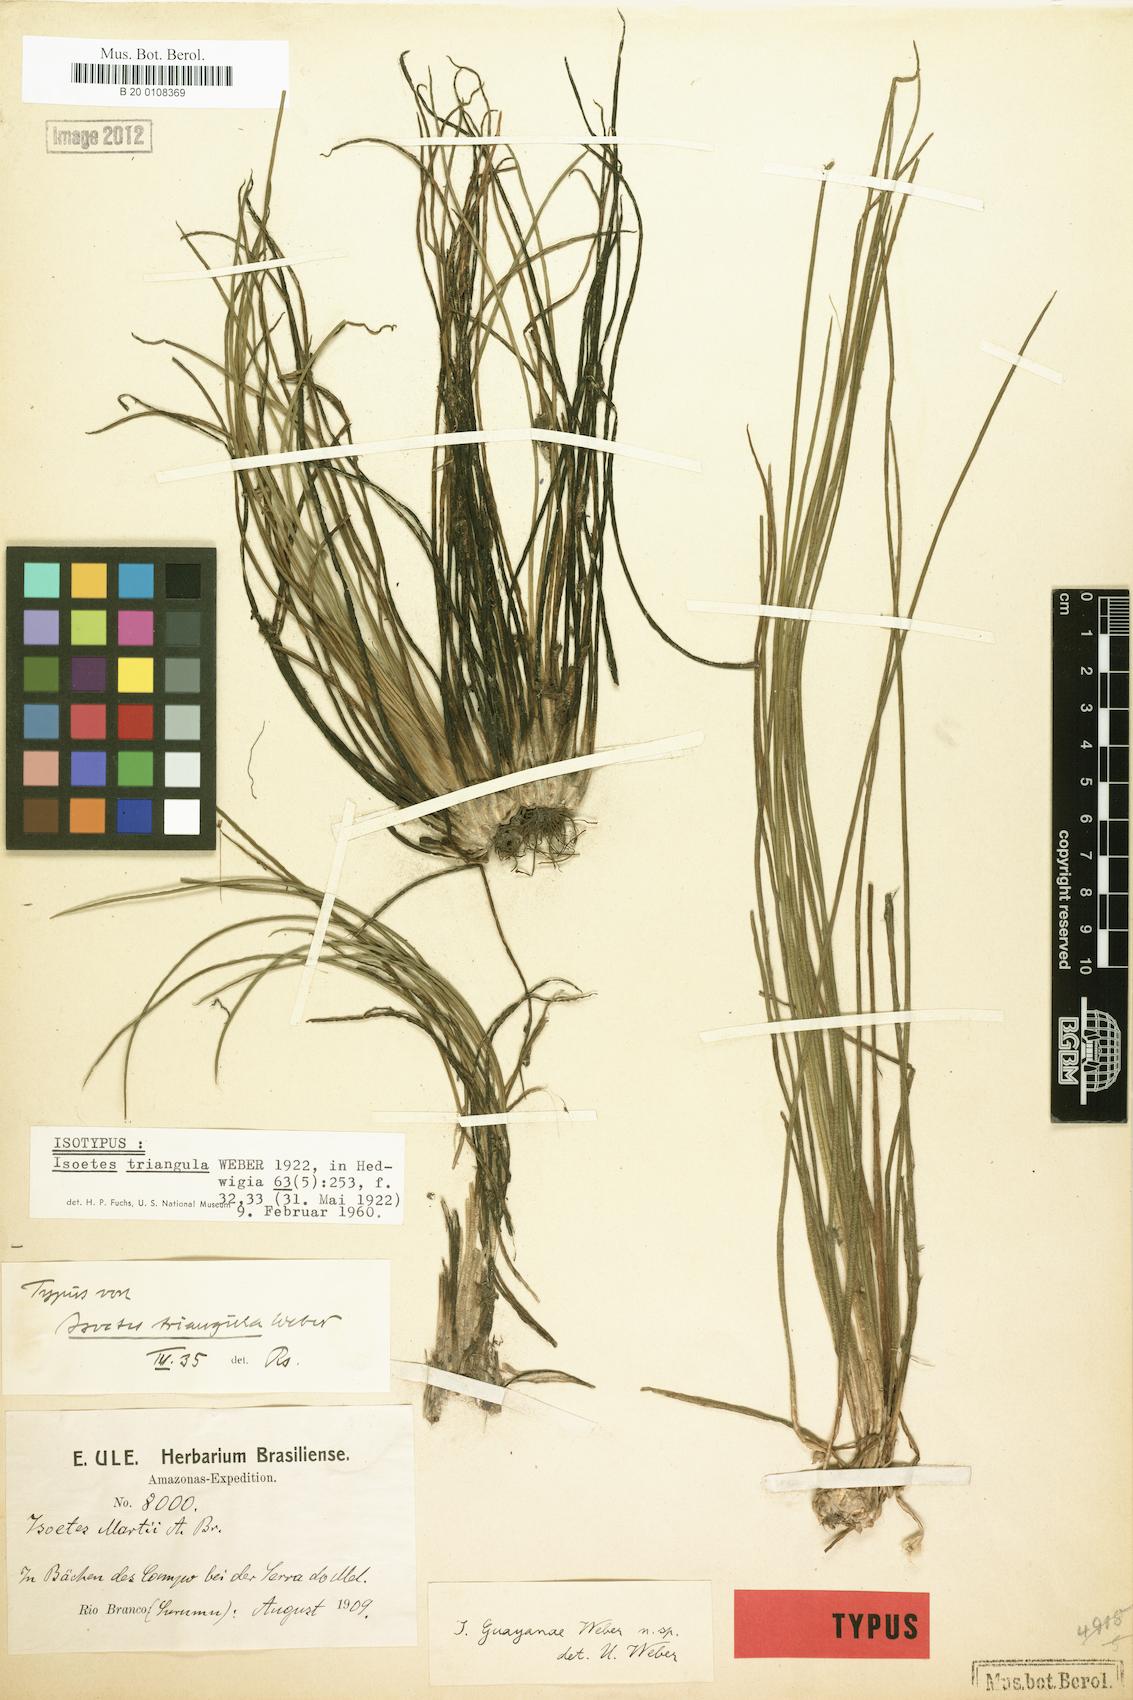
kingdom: Plantae
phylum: Tracheophyta
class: Lycopodiopsida
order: Isoetales
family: Isoetaceae
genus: Isoetes
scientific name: Isoetes triangula
